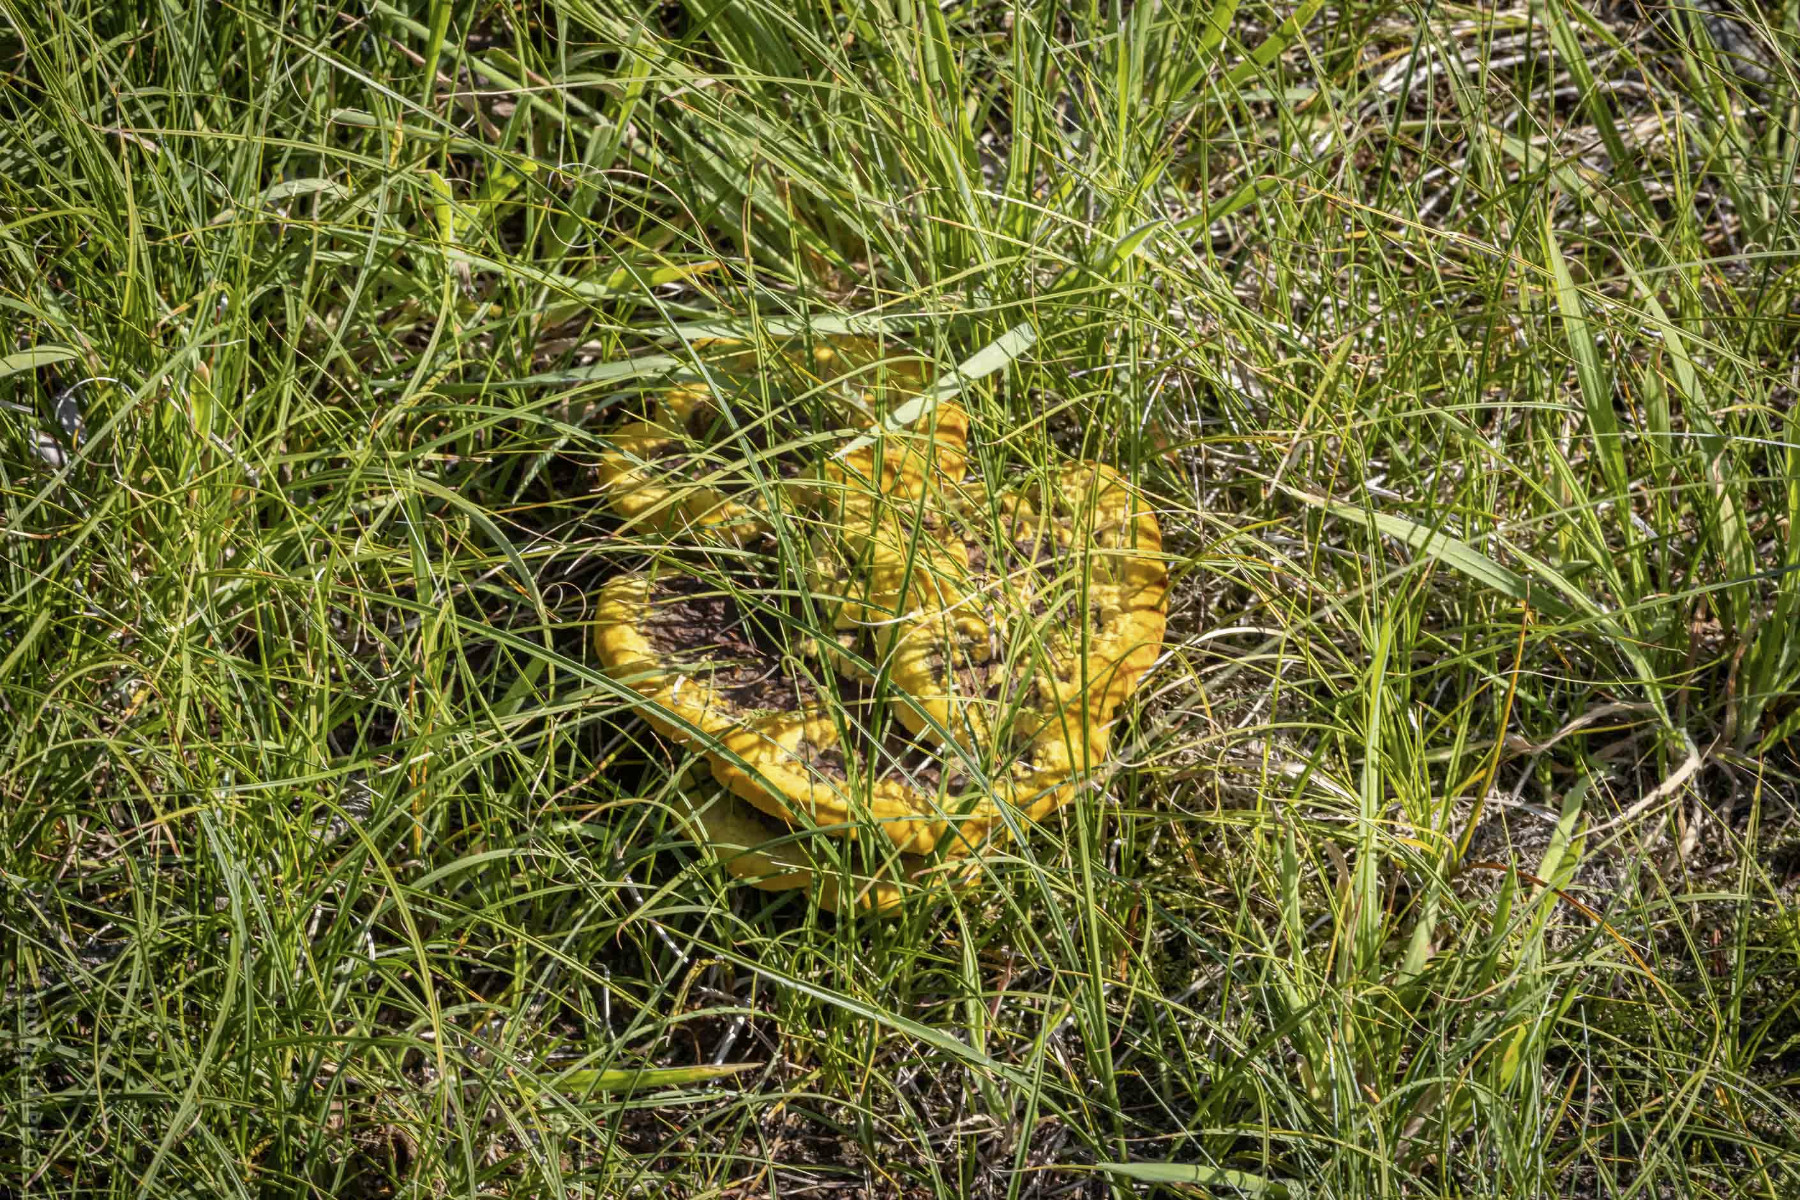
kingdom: Fungi
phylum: Basidiomycota
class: Agaricomycetes
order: Polyporales
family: Laetiporaceae
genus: Phaeolus
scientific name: Phaeolus schweinitzii
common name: brunporesvamp
